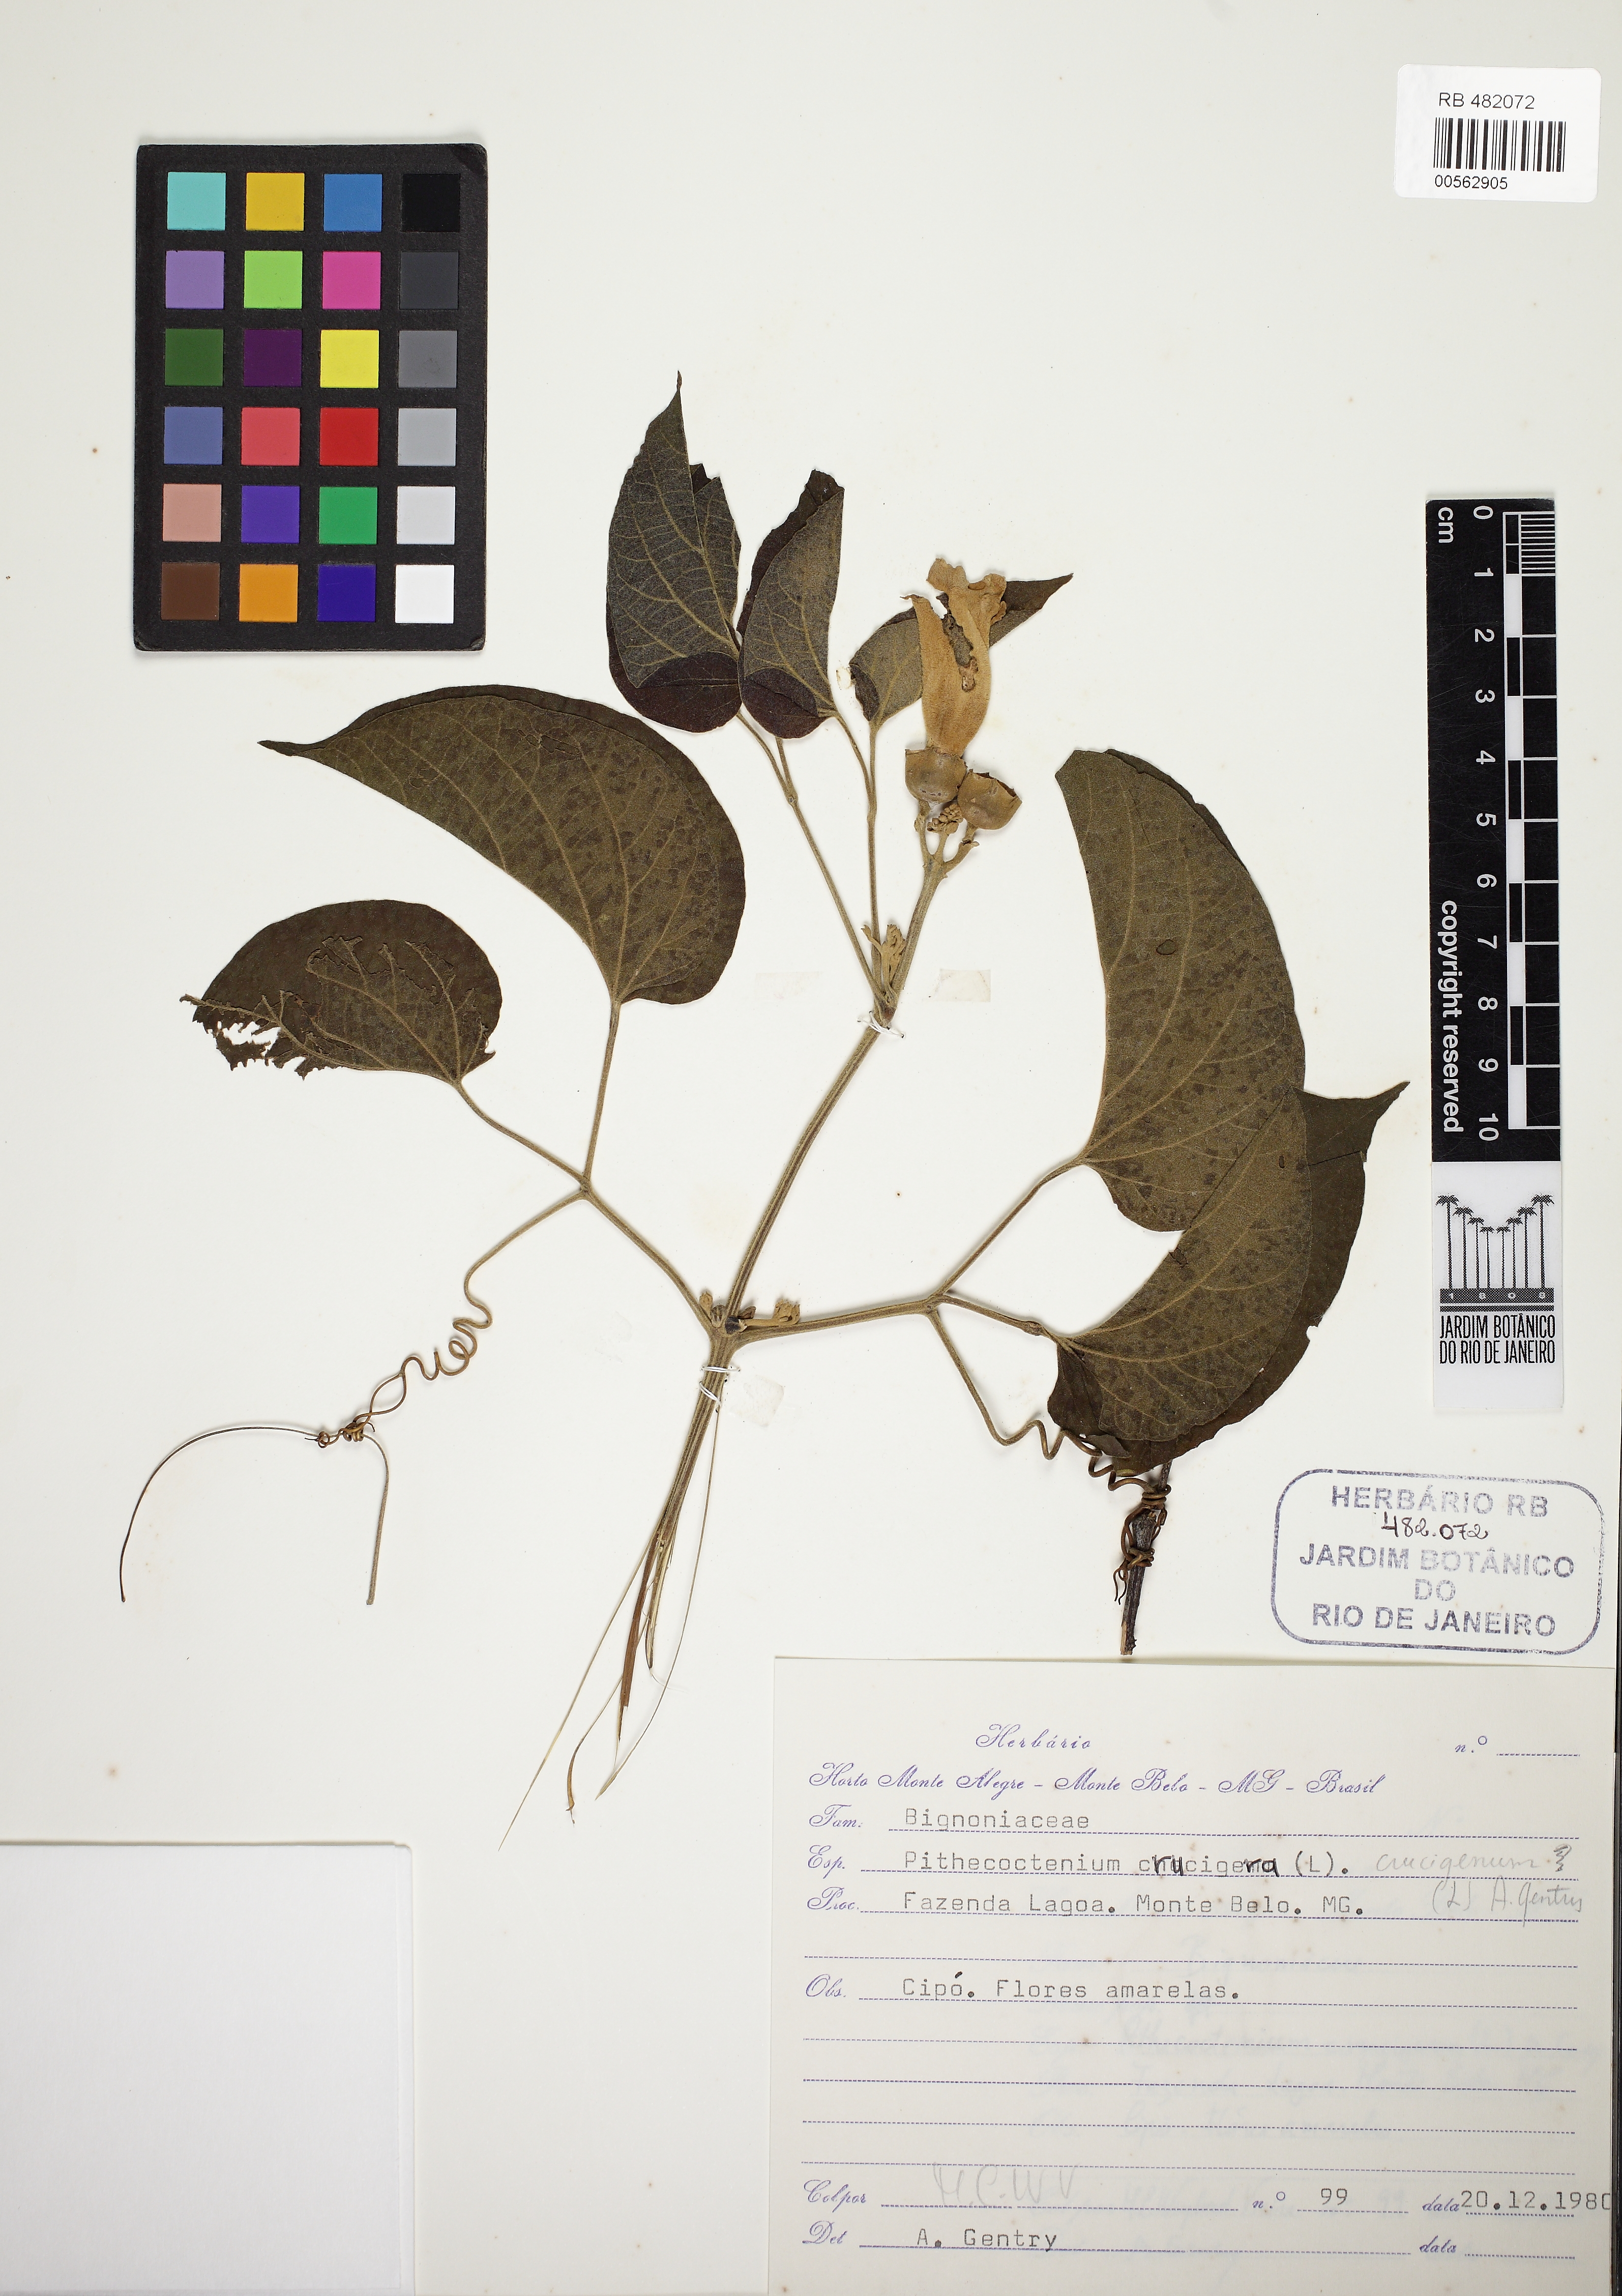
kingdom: Plantae
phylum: Tracheophyta
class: Magnoliopsida
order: Lamiales
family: Bignoniaceae
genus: Amphilophium
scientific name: Amphilophium crucigerum
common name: Monkey comb
